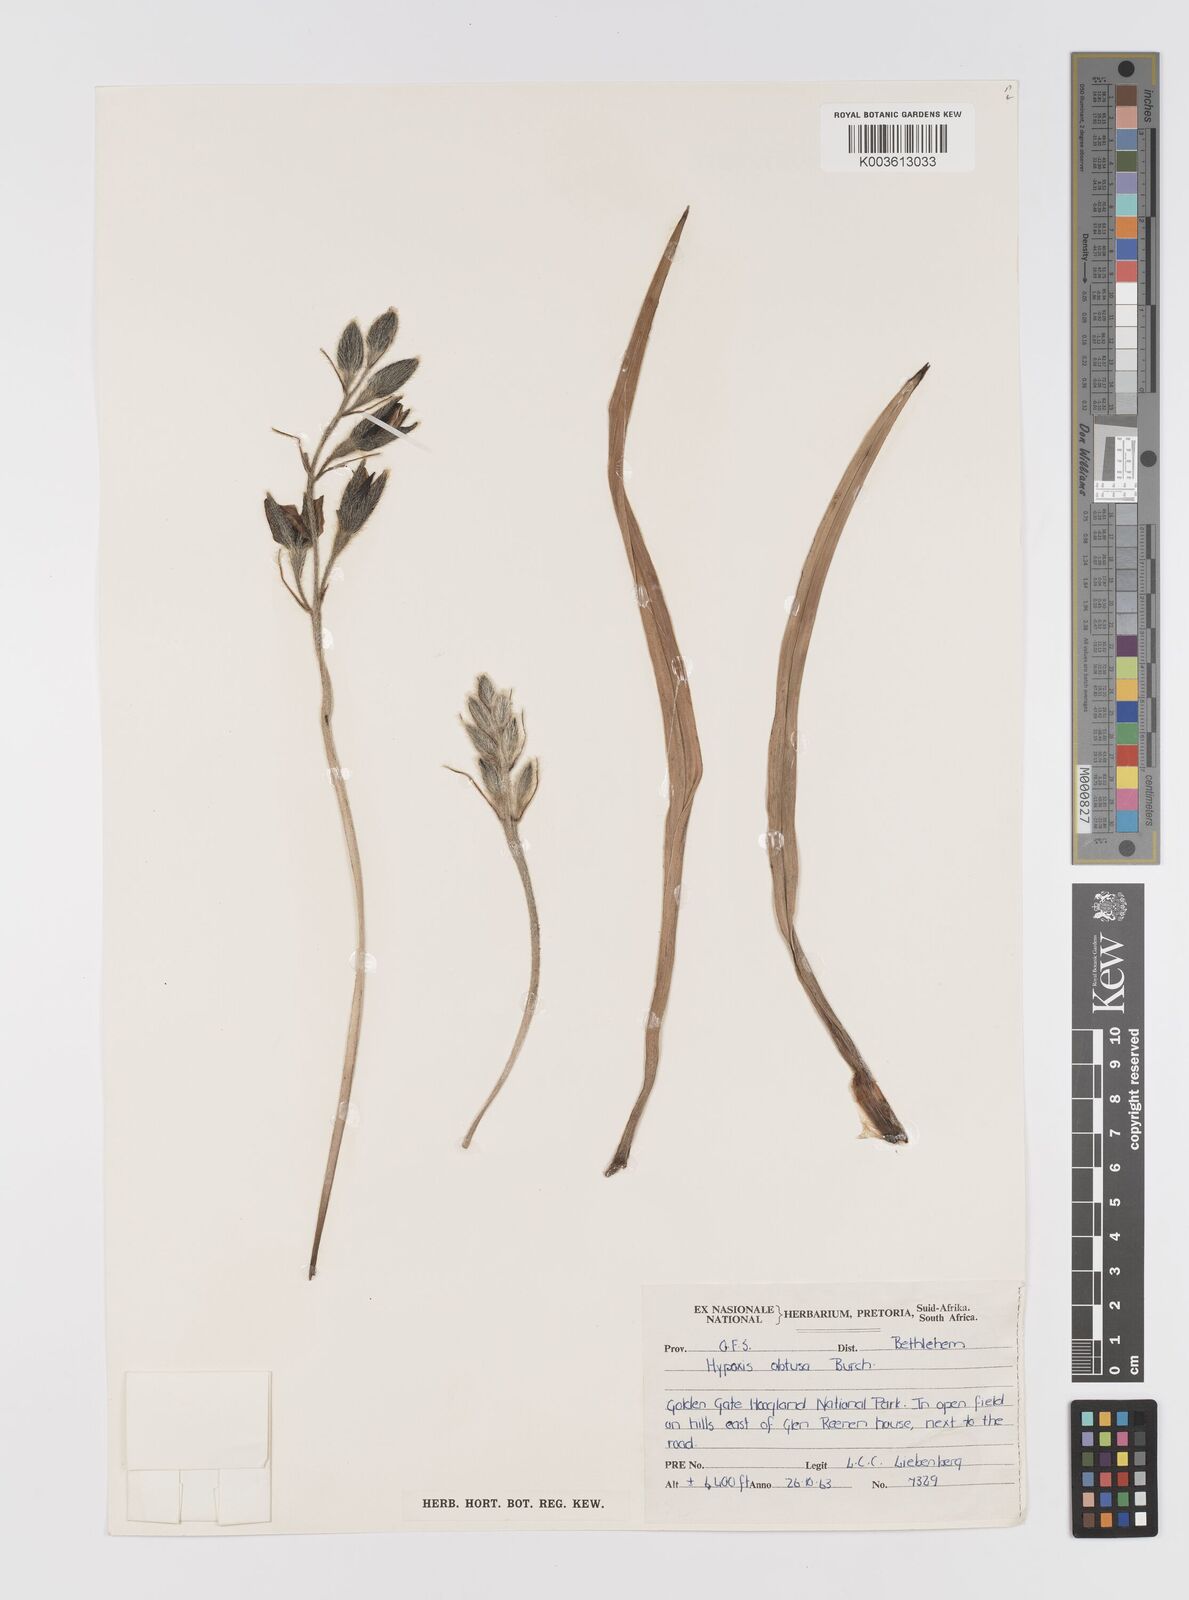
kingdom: Plantae
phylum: Tracheophyta
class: Liliopsida
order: Asparagales
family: Hypoxidaceae
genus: Hypoxis
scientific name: Hypoxis obtusa
